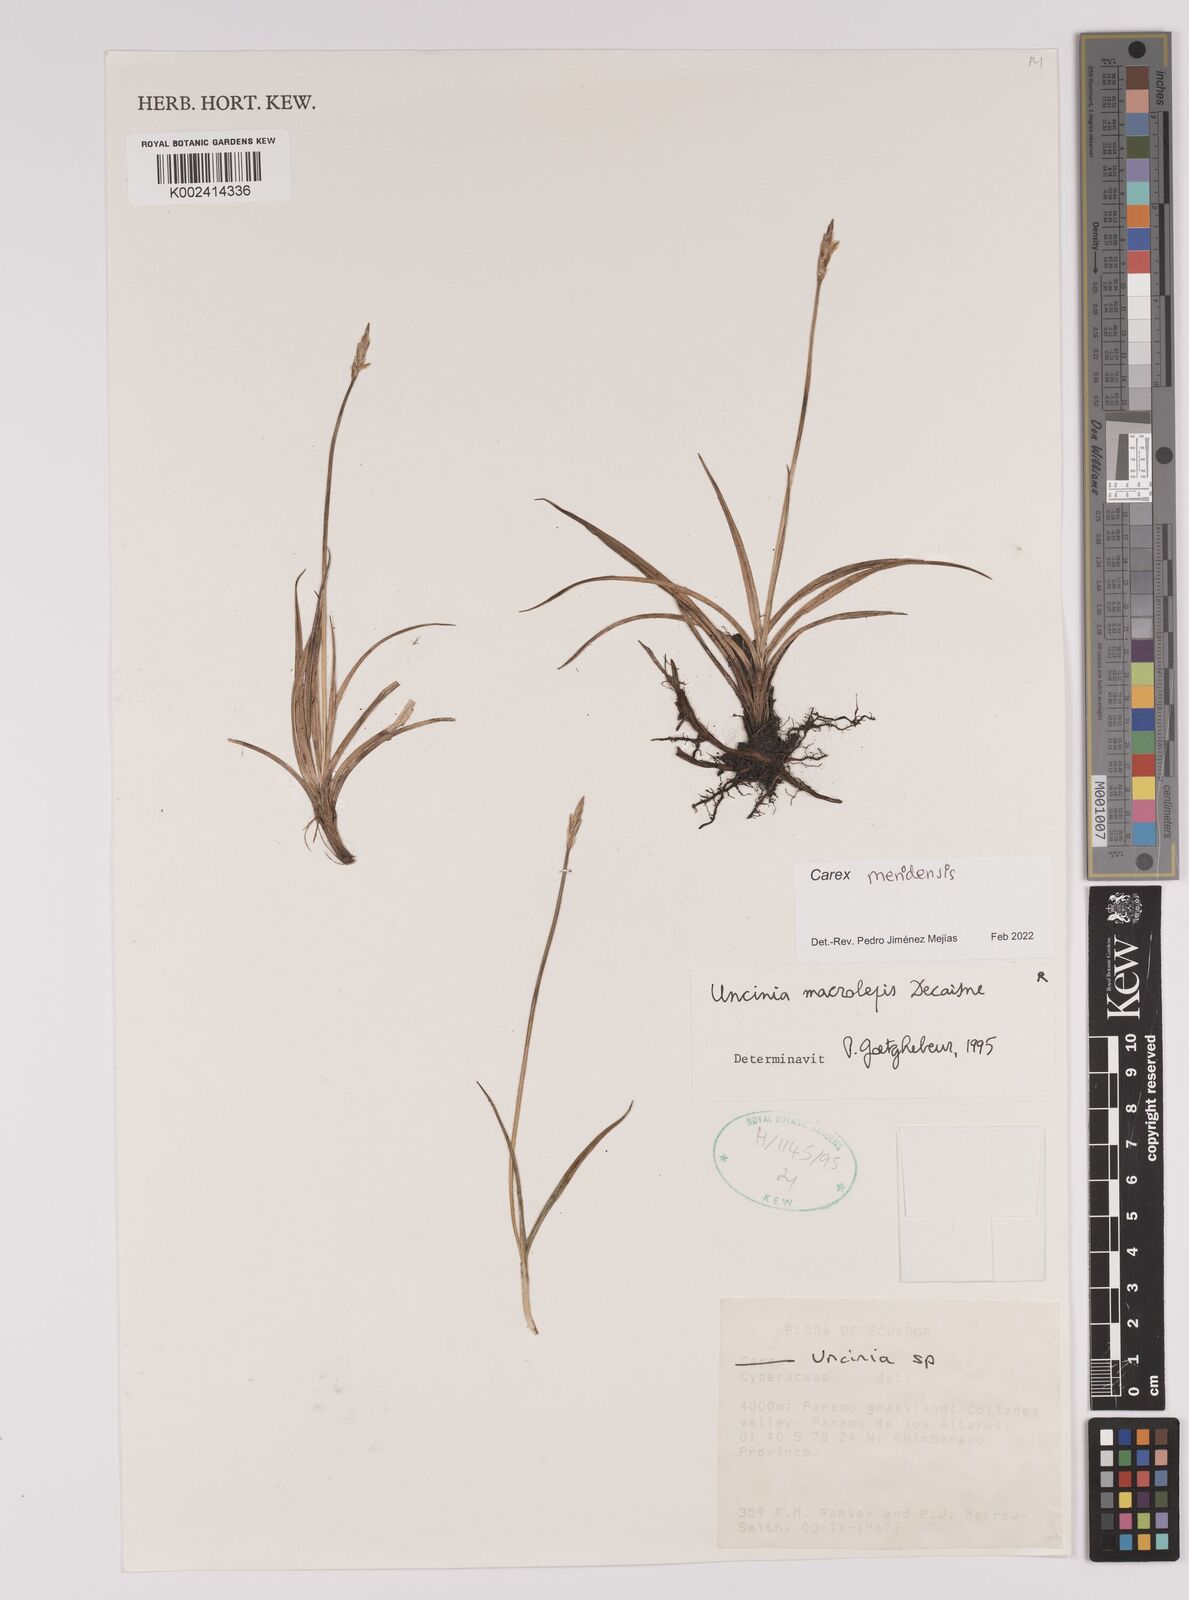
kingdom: Plantae
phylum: Tracheophyta
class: Liliopsida
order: Poales
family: Cyperaceae
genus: Carex
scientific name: Carex meridensis
